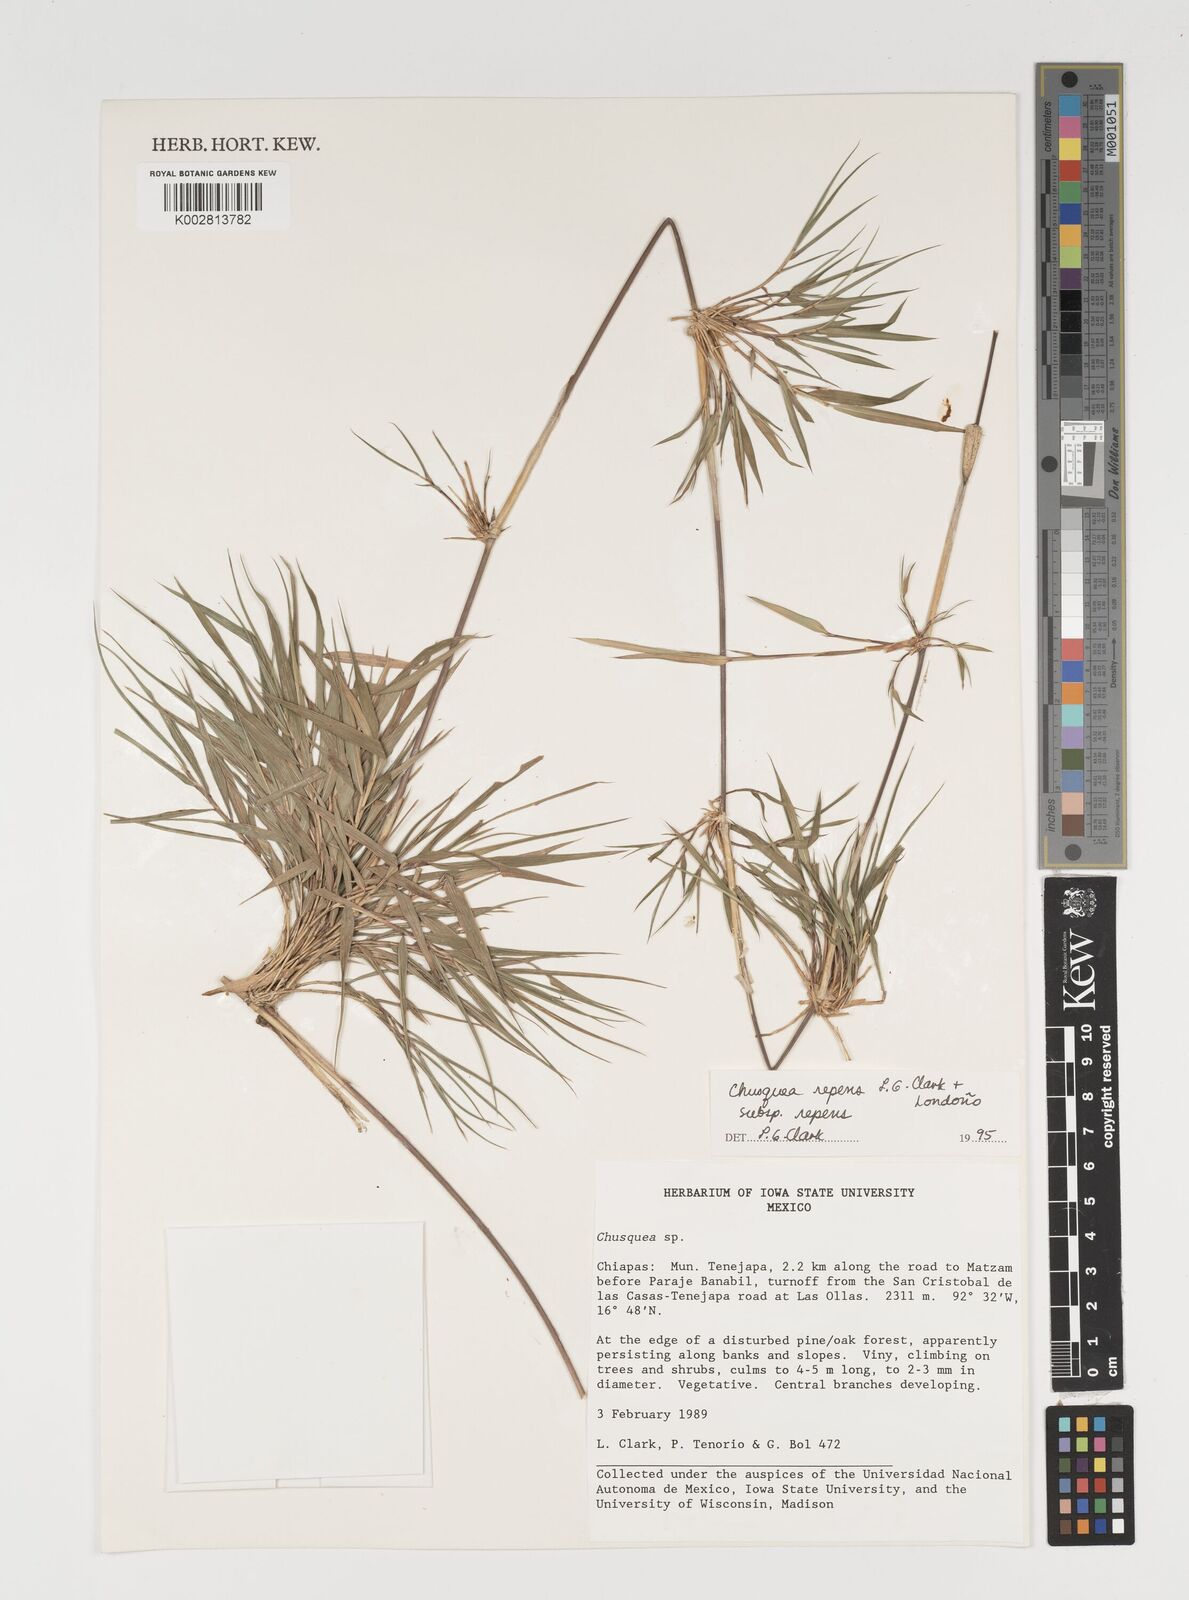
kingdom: Plantae
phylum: Tracheophyta
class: Liliopsida
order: Poales
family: Poaceae
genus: Chusquea
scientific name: Chusquea repens
